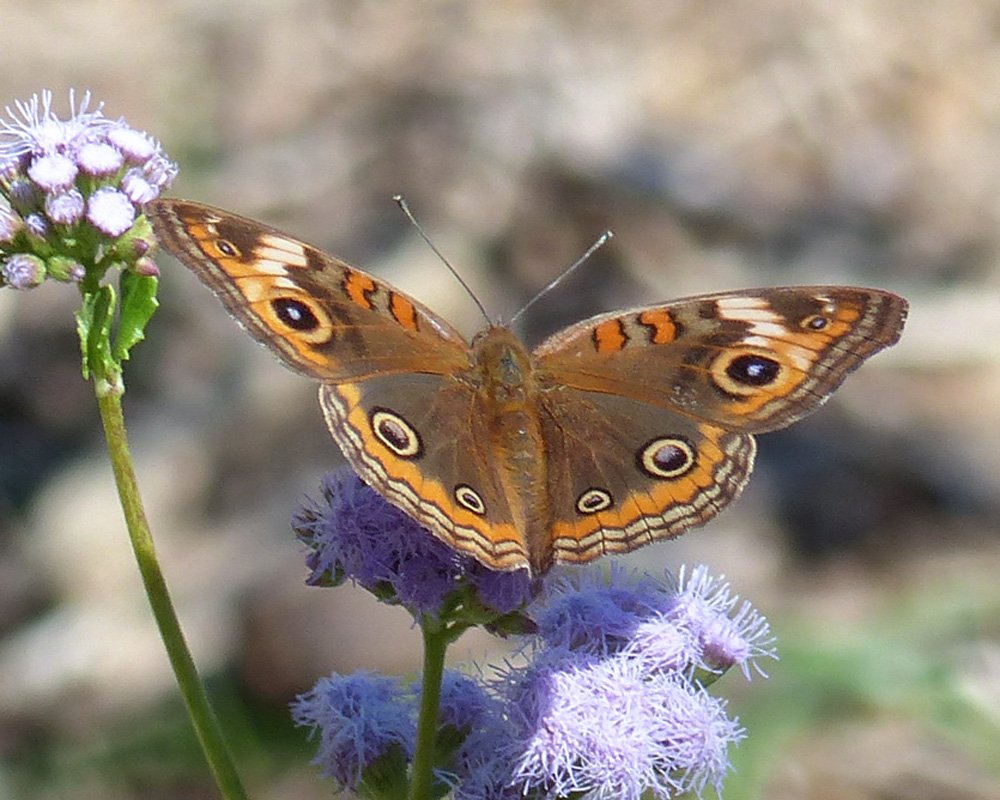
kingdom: Animalia
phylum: Arthropoda
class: Insecta
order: Lepidoptera
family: Nymphalidae
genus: Junonia
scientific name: Junonia evarete
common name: Mangrove Buckeye
